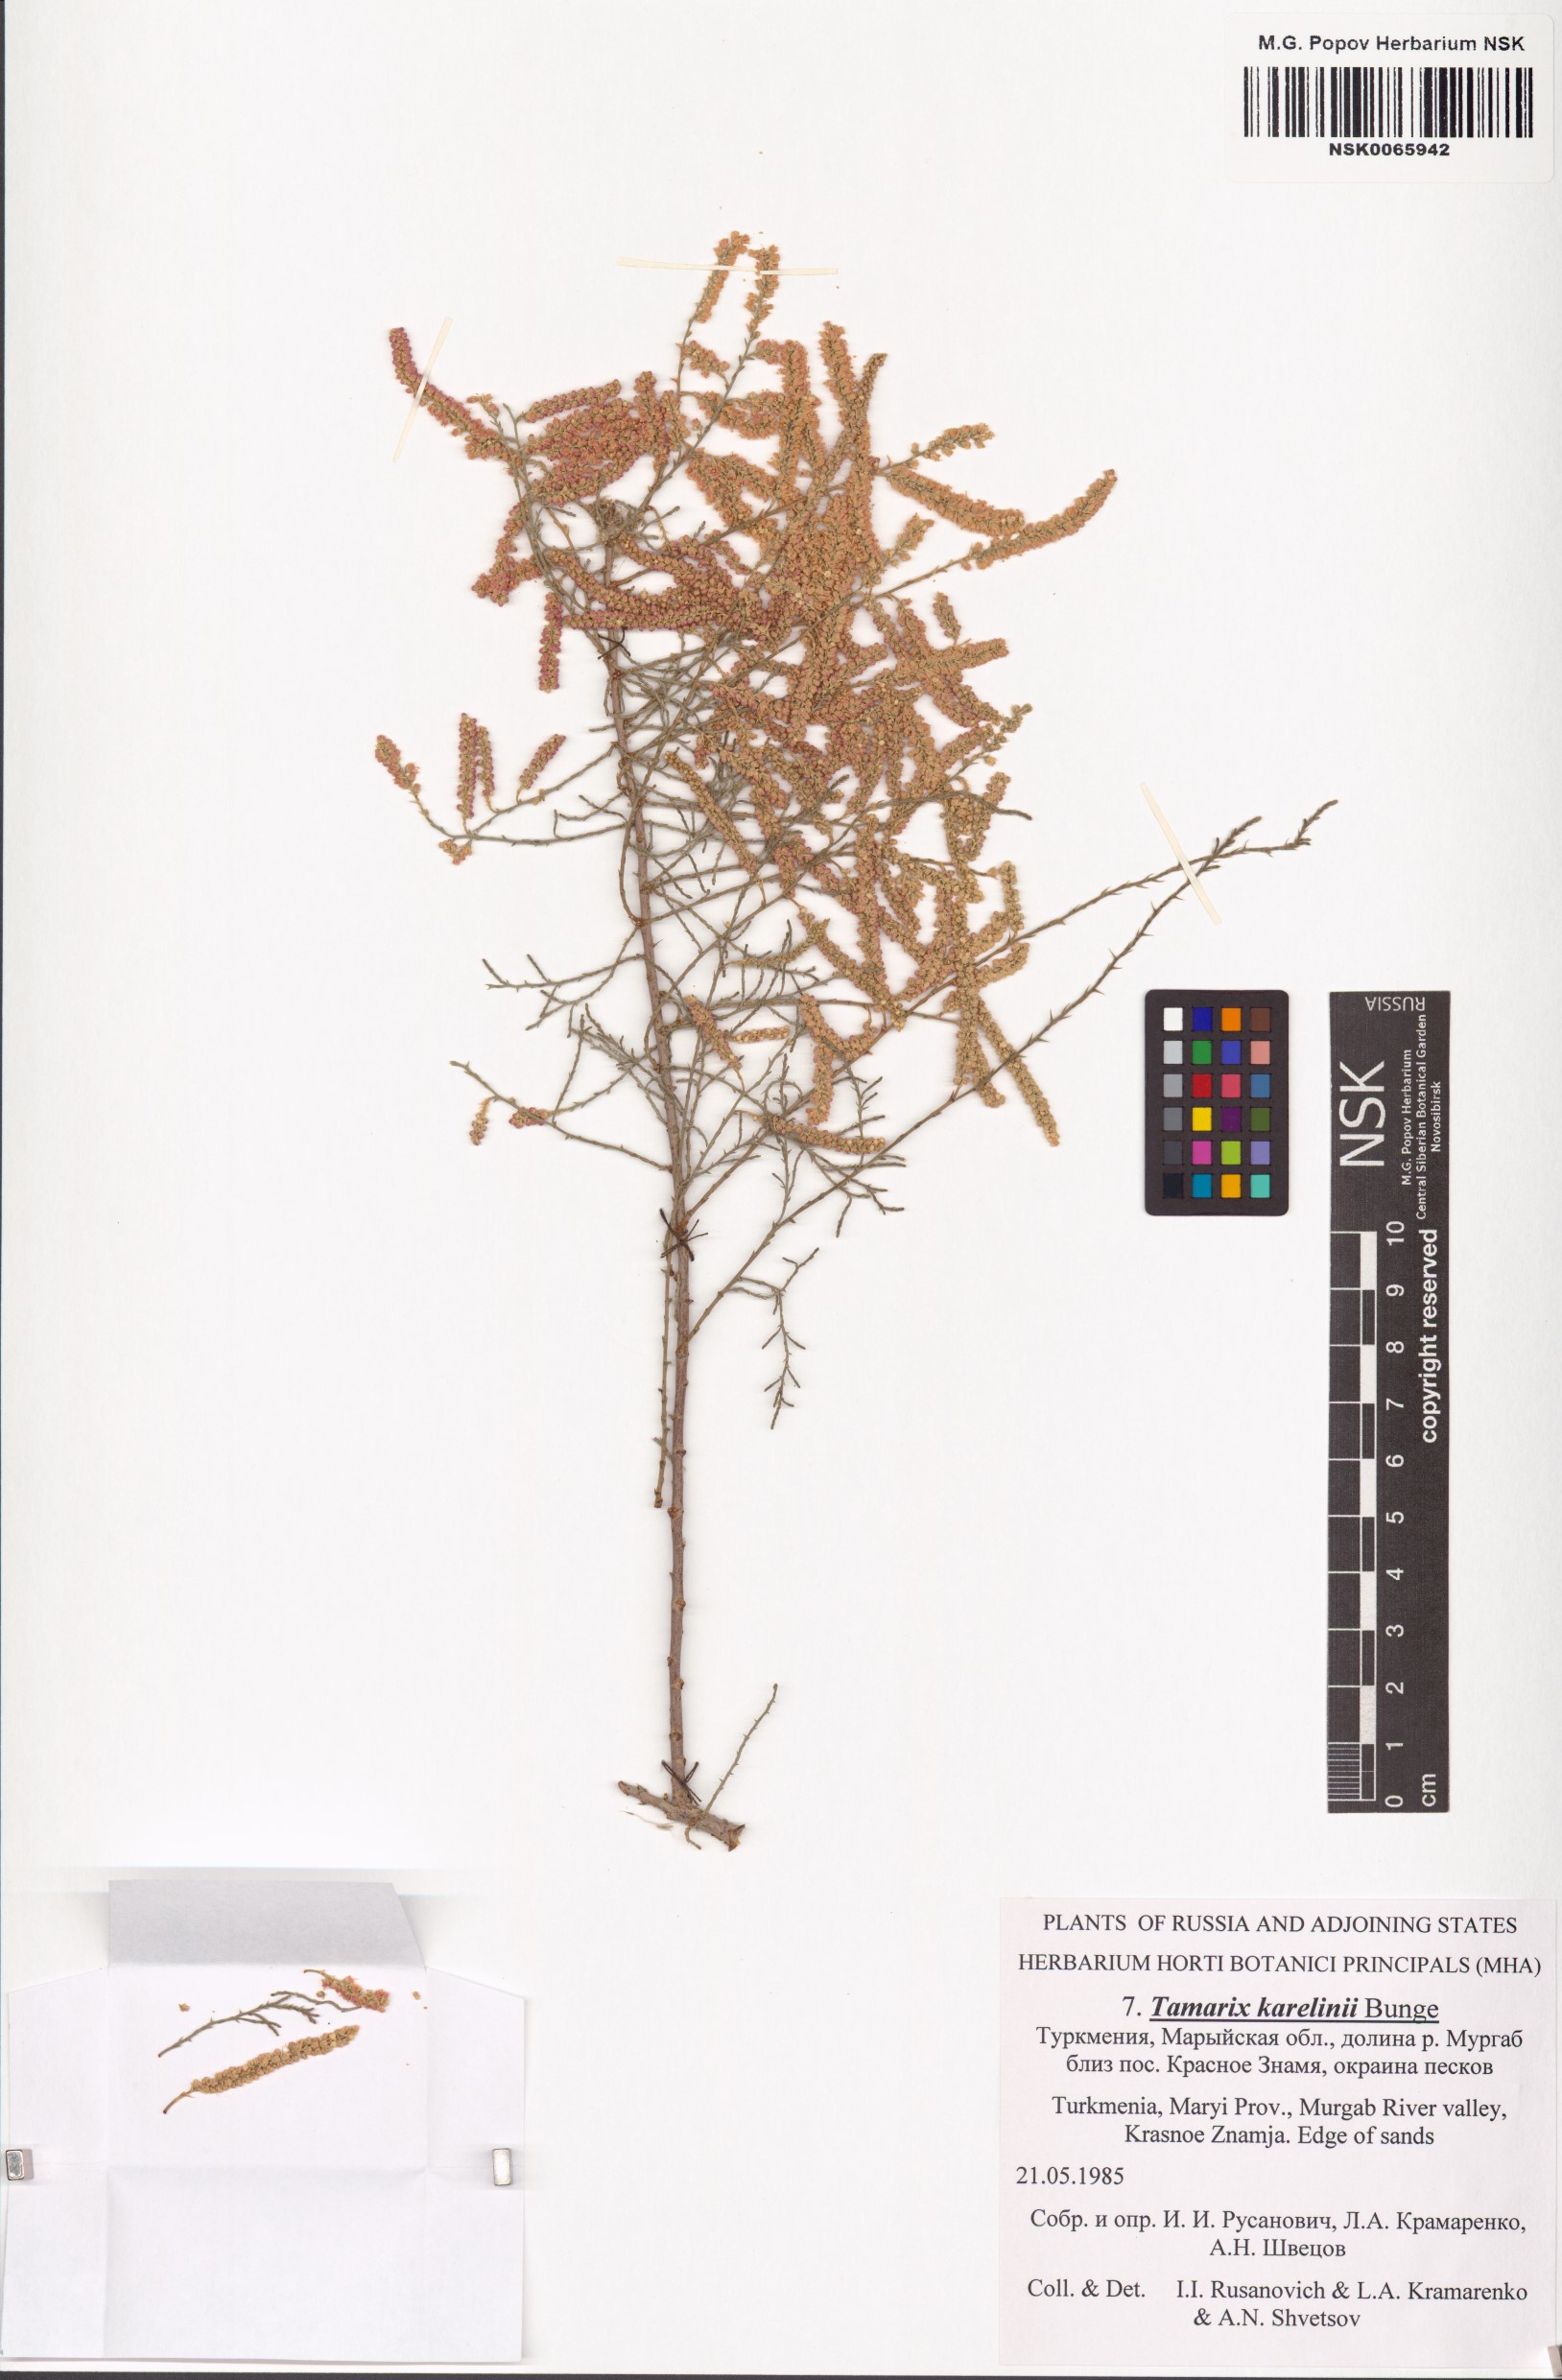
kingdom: Plantae
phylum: Tracheophyta
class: Magnoliopsida
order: Caryophyllales
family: Tamaricaceae
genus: Tamarix
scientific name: Tamarix karelinii
